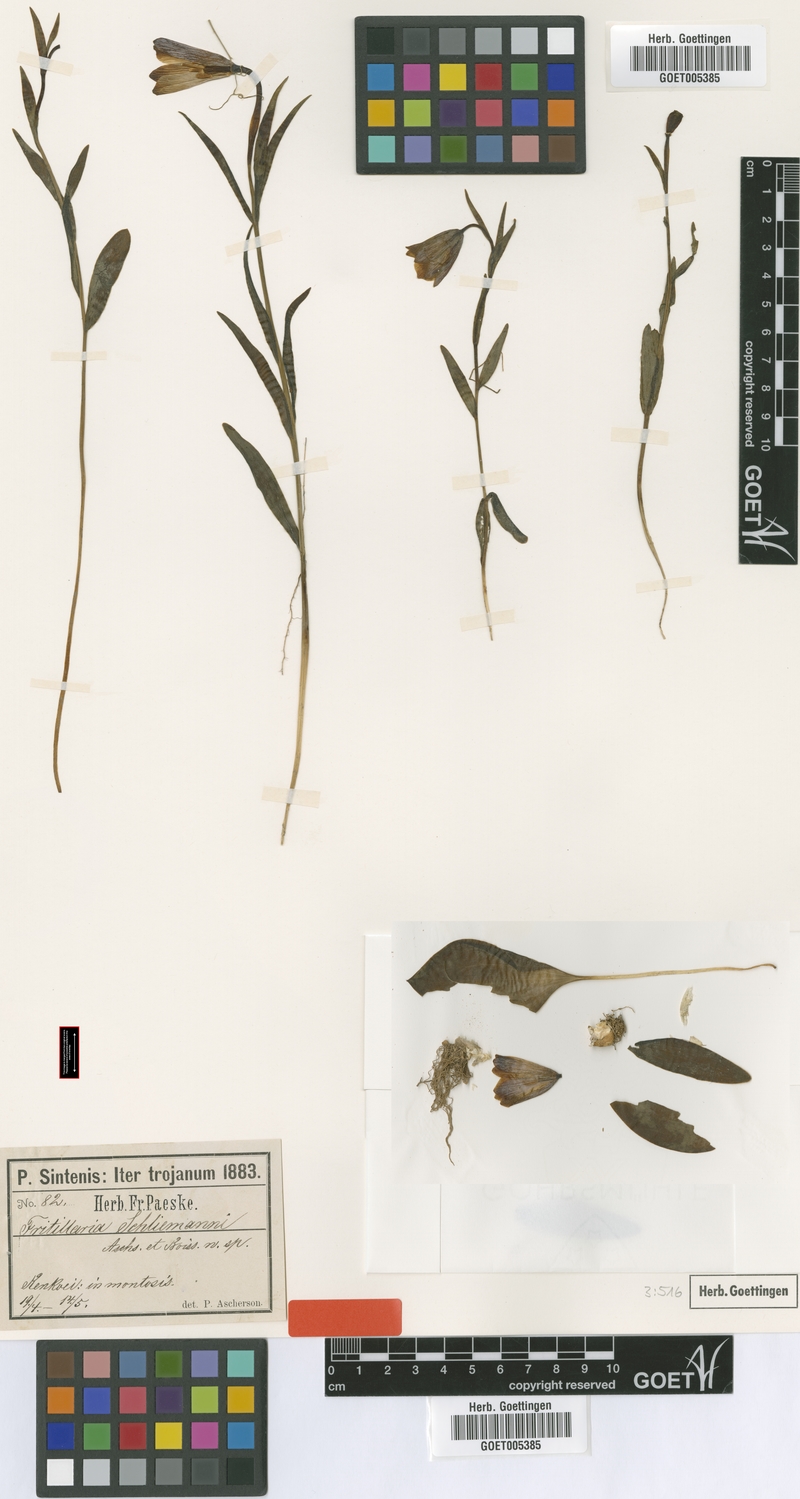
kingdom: Plantae
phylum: Tracheophyta
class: Liliopsida
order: Liliales
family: Liliaceae
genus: Fritillaria
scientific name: Fritillaria schliemanni
